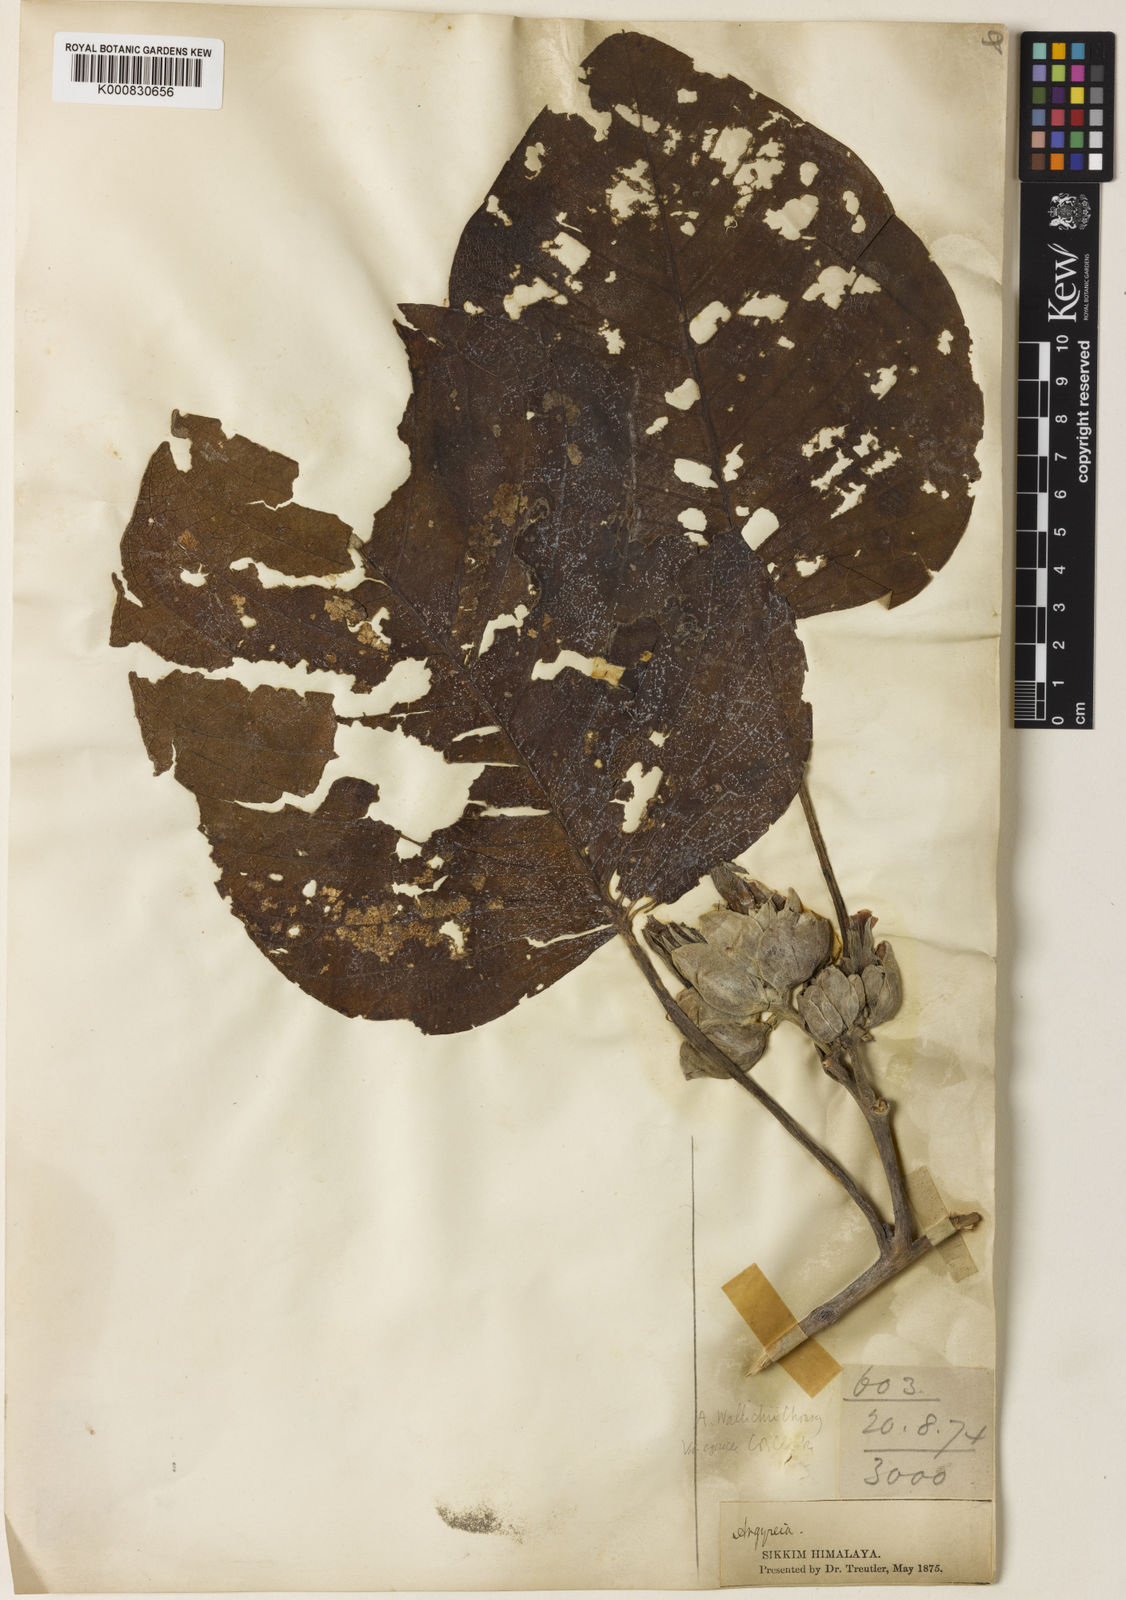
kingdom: Plantae
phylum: Tracheophyta
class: Magnoliopsida
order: Solanales
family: Convolvulaceae
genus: Argyreia
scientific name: Argyreia wallichii
